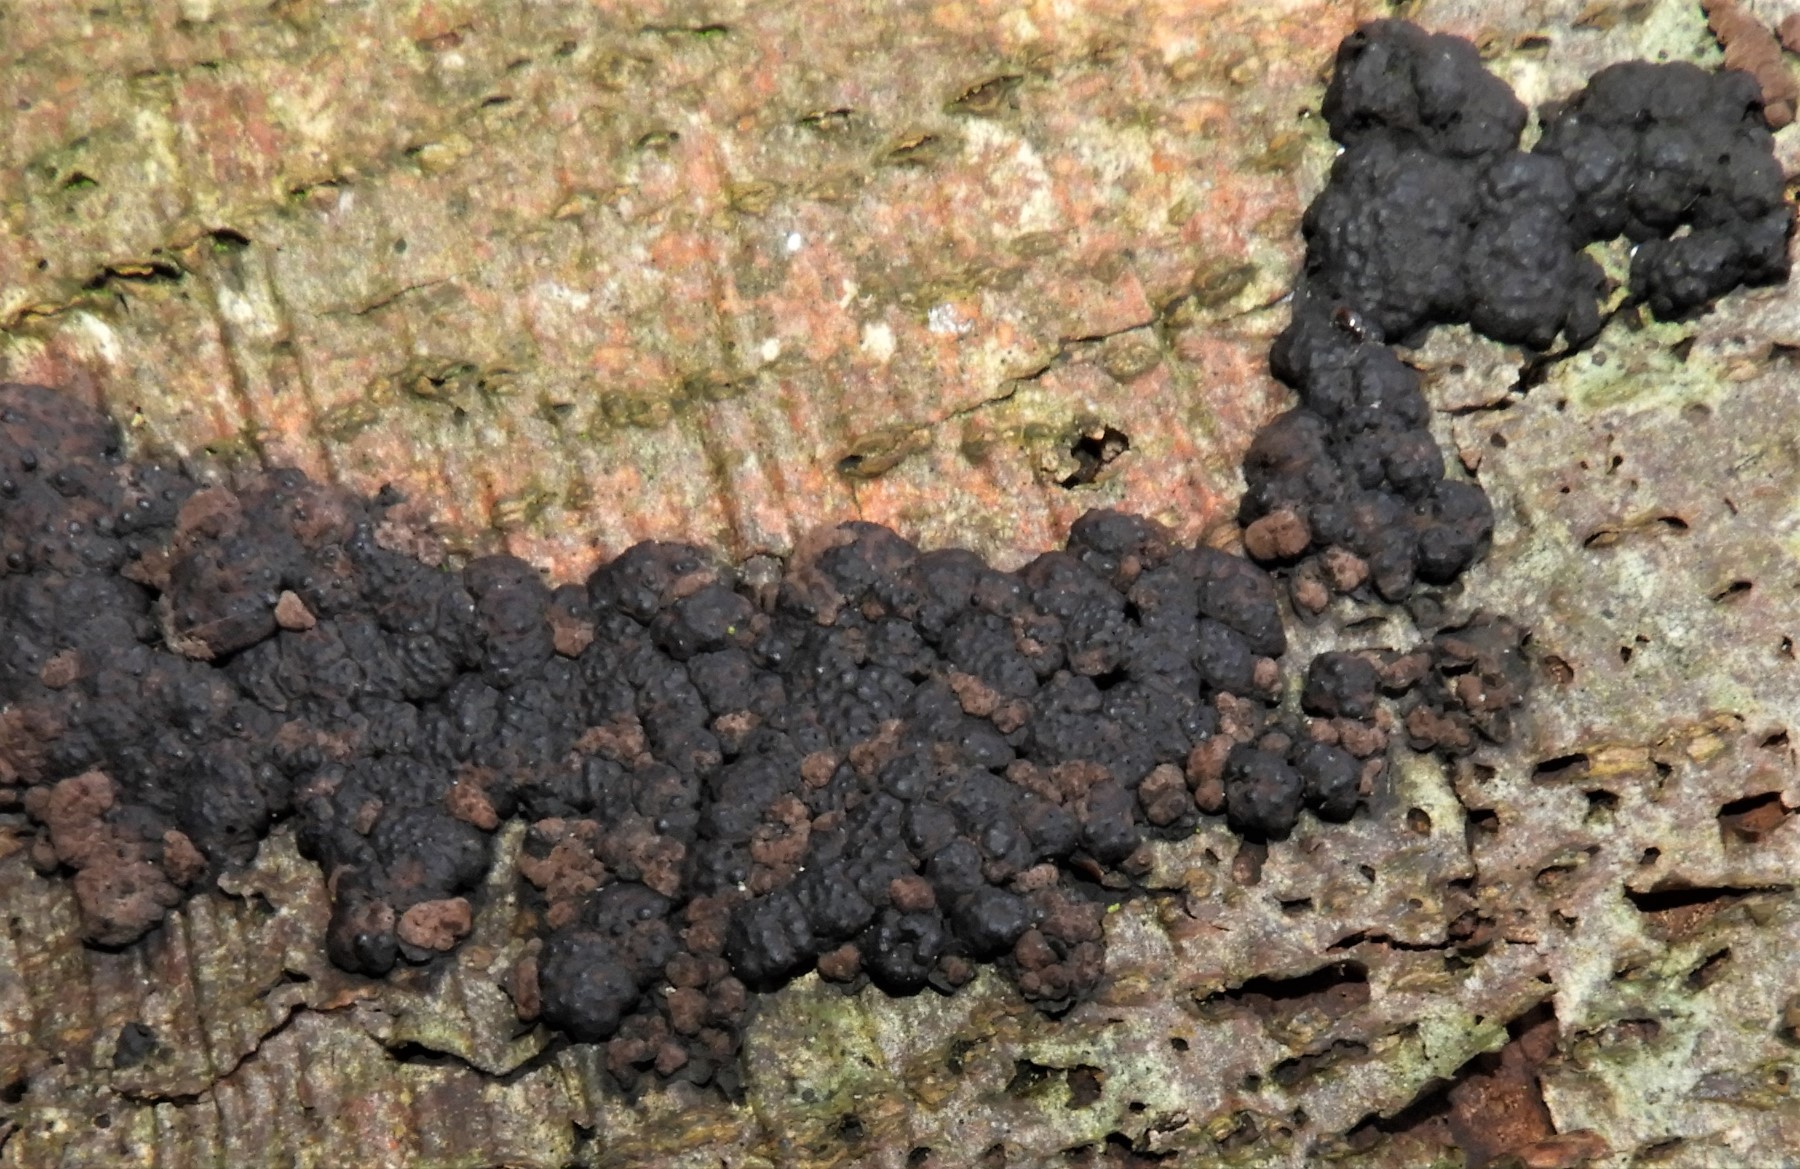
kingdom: Fungi
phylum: Ascomycota
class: Sordariomycetes
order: Xylariales
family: Hypoxylaceae
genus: Jackrogersella
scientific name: Jackrogersella cohaerens
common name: sammenflydende kulbær
